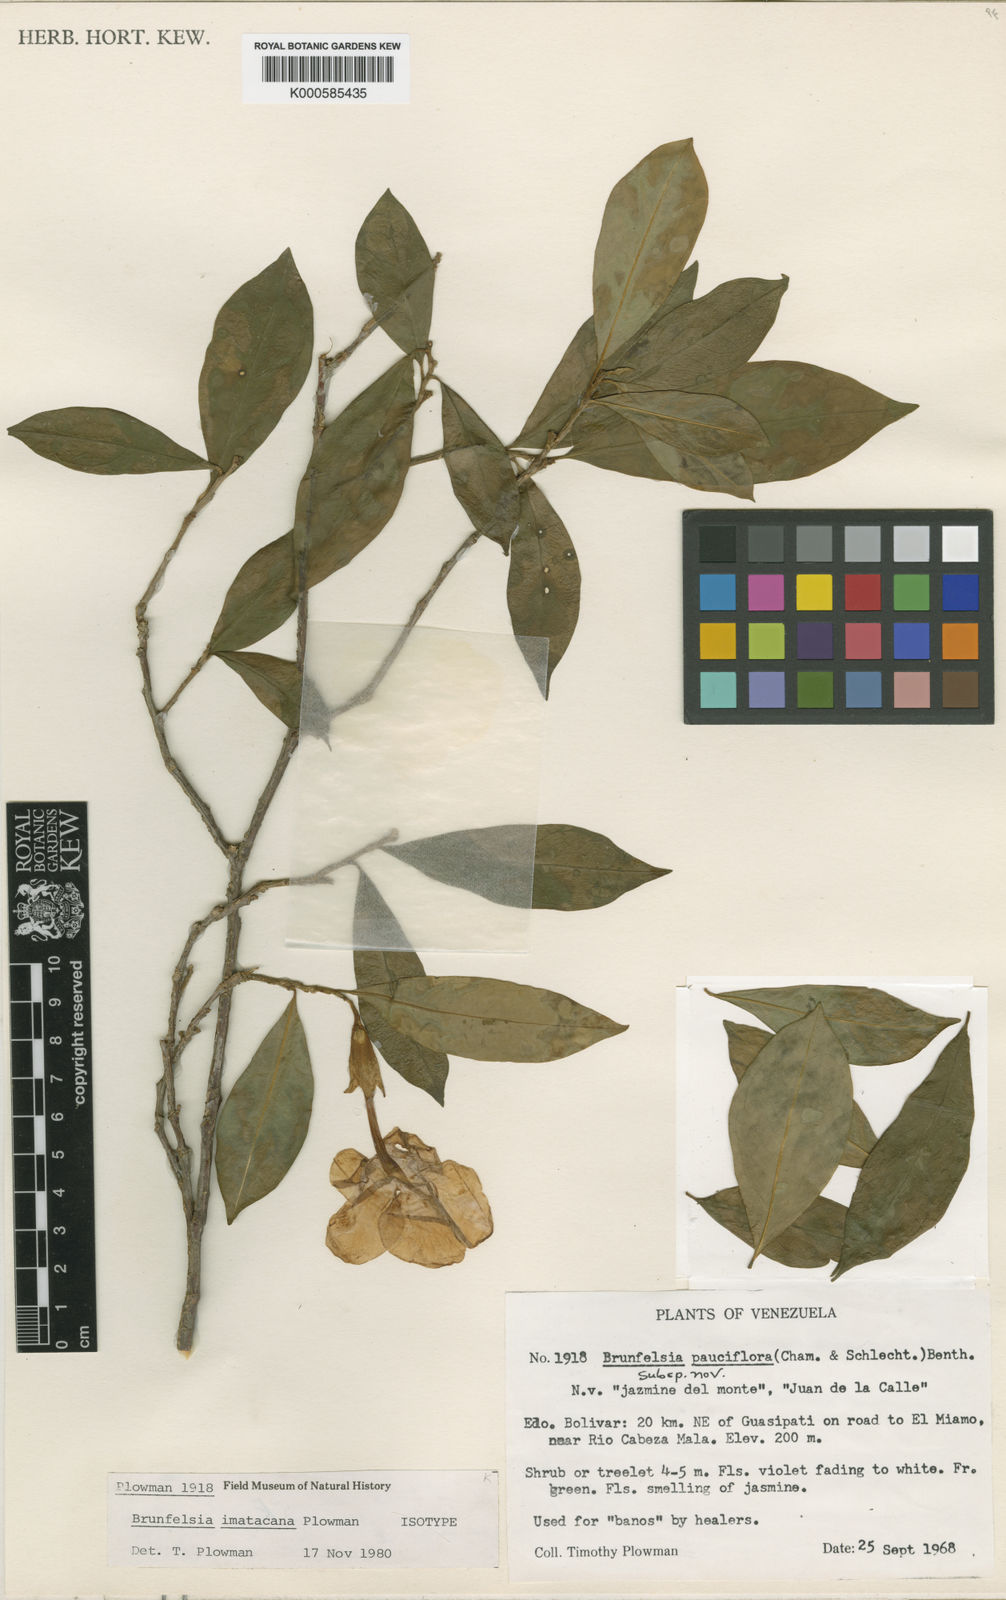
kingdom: Plantae
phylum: Tracheophyta
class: Magnoliopsida
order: Solanales
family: Solanaceae
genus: Brunfelsia
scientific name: Brunfelsia imatacana
